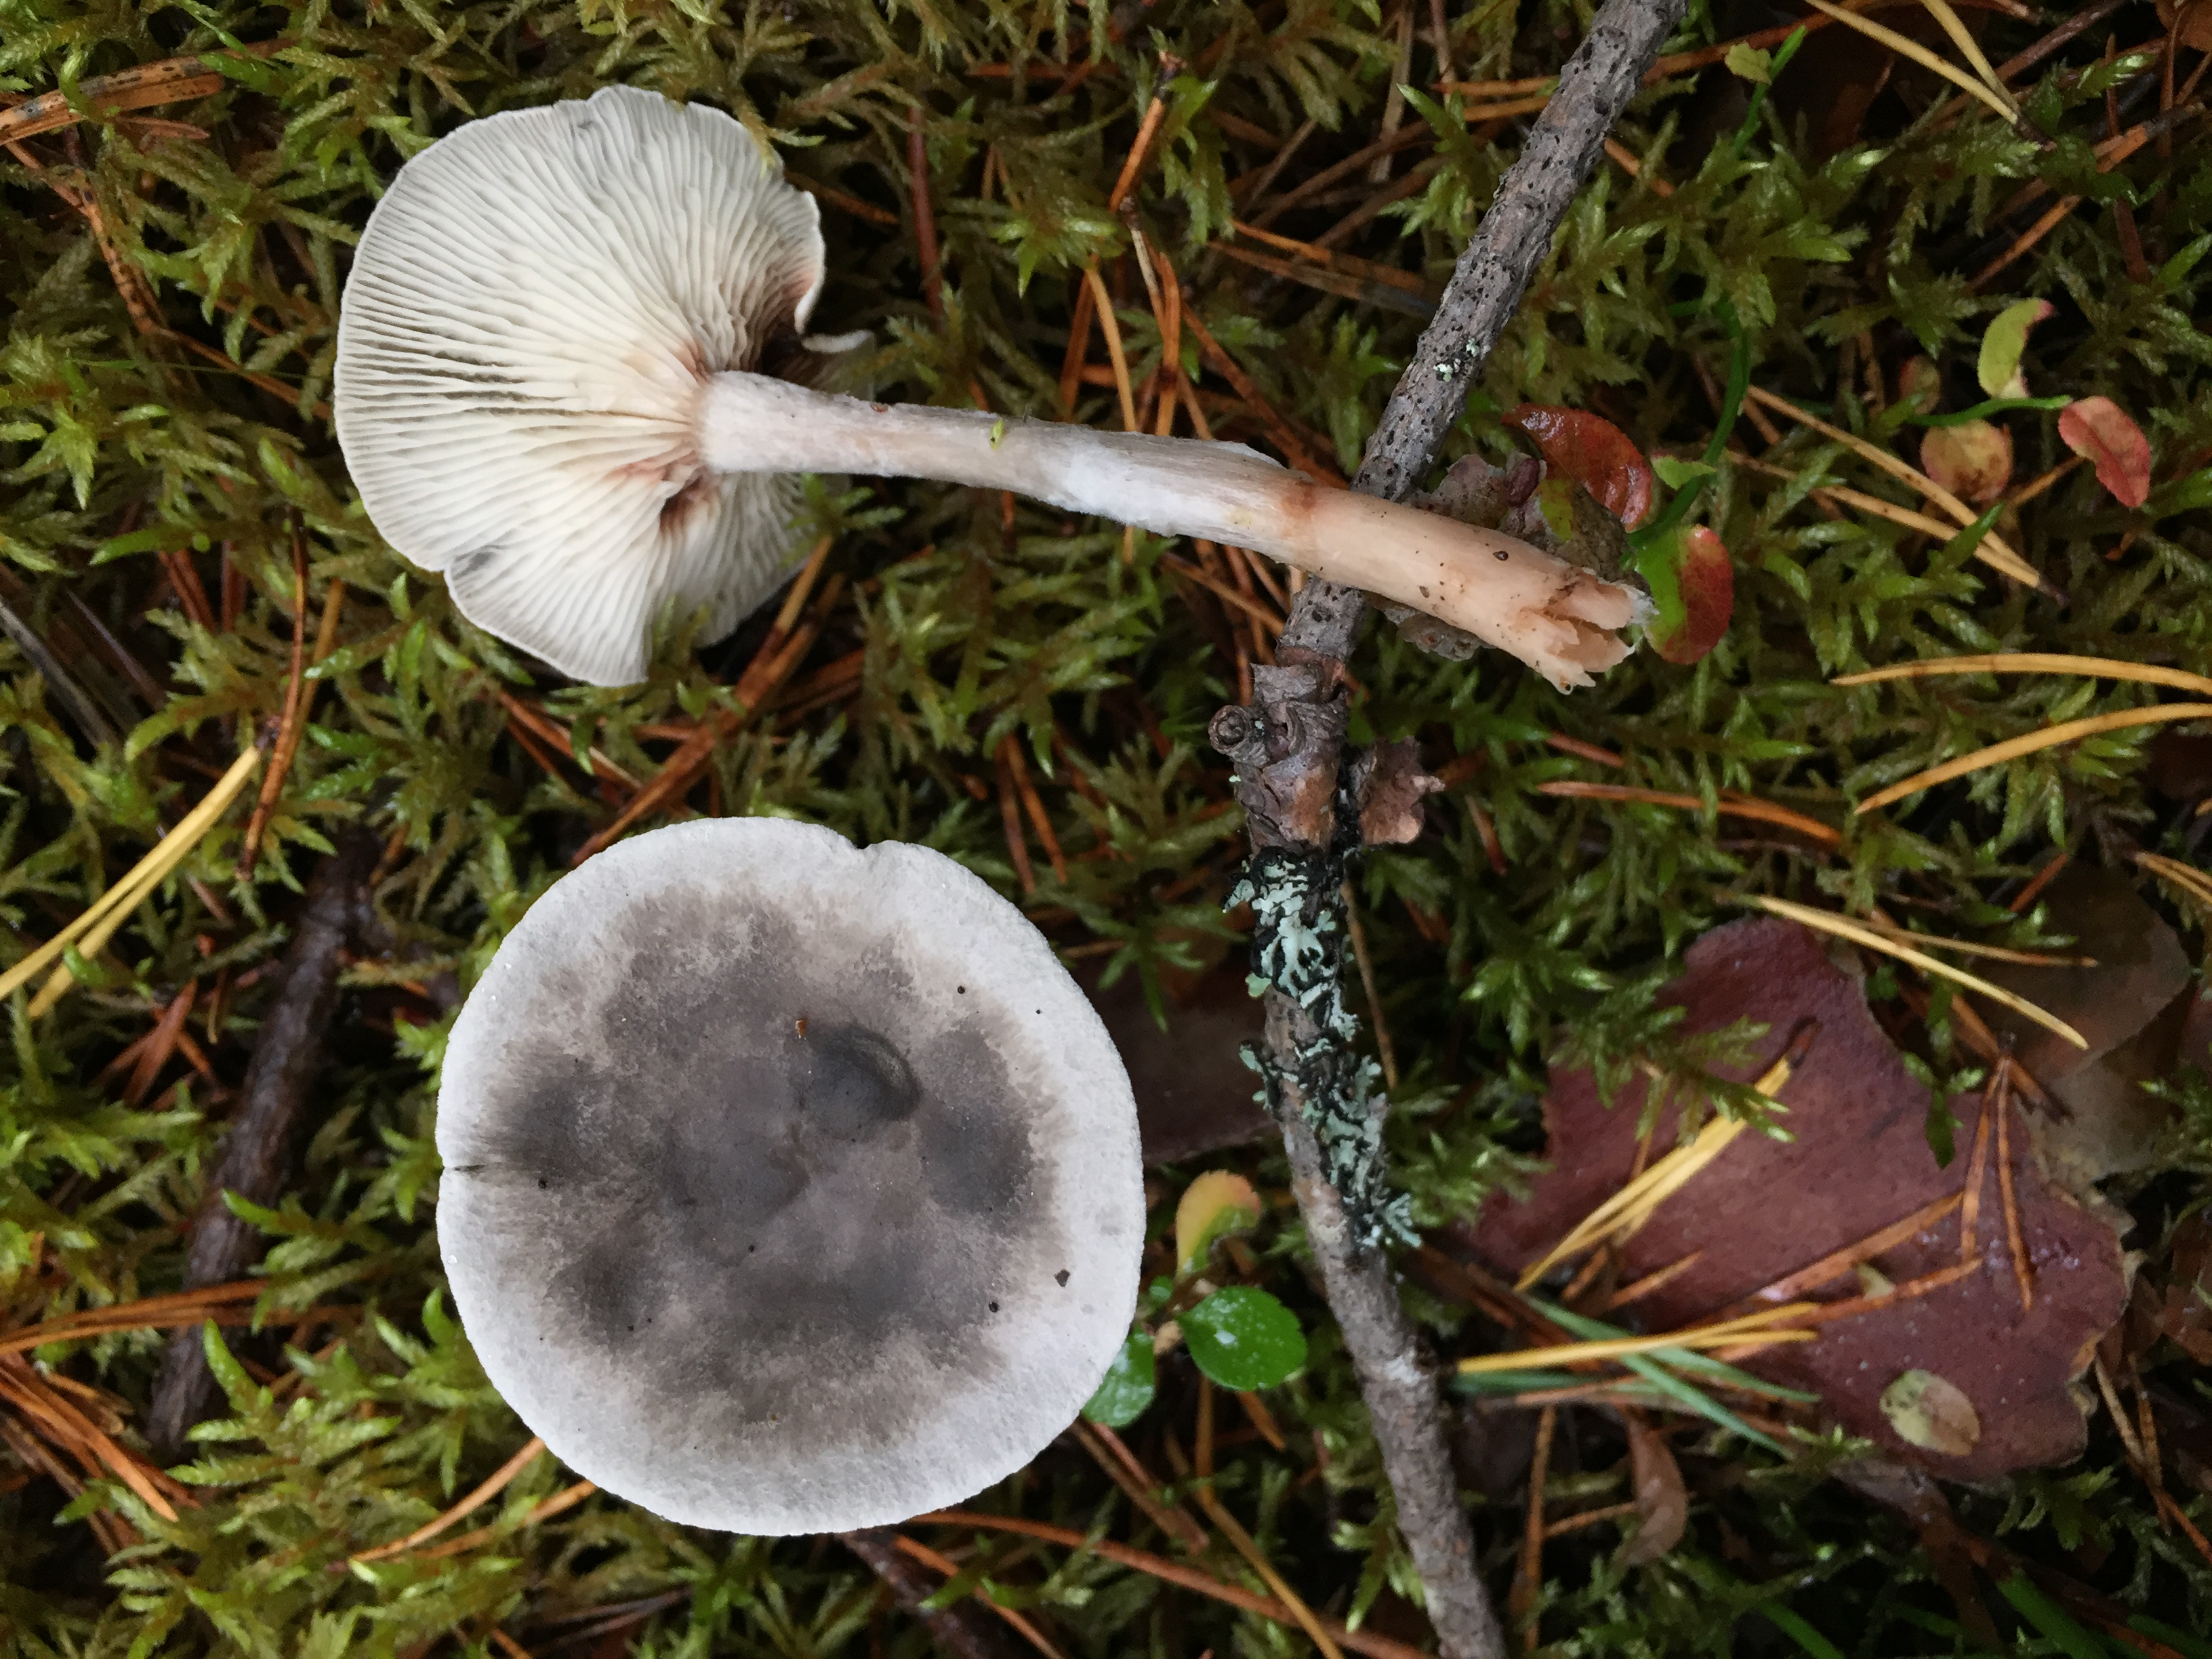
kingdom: Fungi
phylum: Basidiomycota
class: Agaricomycetes
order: Agaricales
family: Hygrophoraceae
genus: Cantharellula
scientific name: Cantharellula umbonata
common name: The humpback
